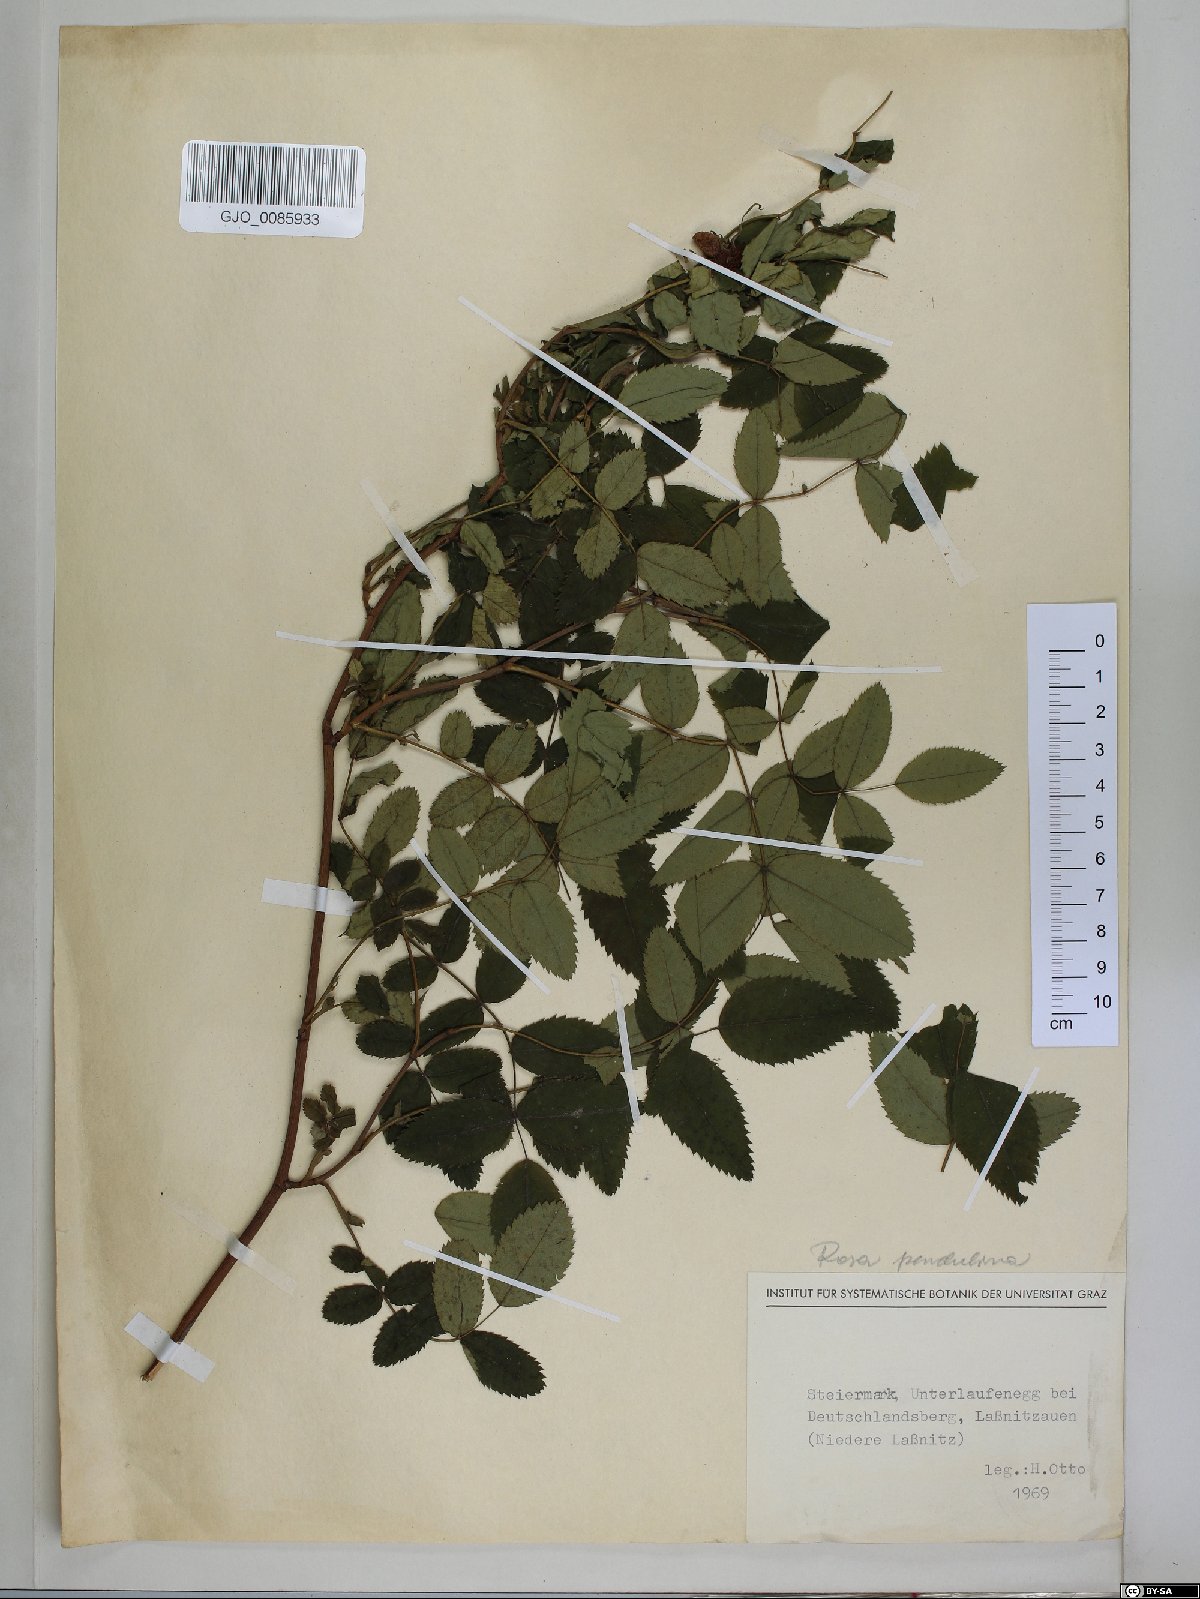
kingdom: Plantae
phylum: Tracheophyta
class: Magnoliopsida
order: Rosales
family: Rosaceae
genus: Rosa
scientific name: Rosa pendulina
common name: Alpine rose
